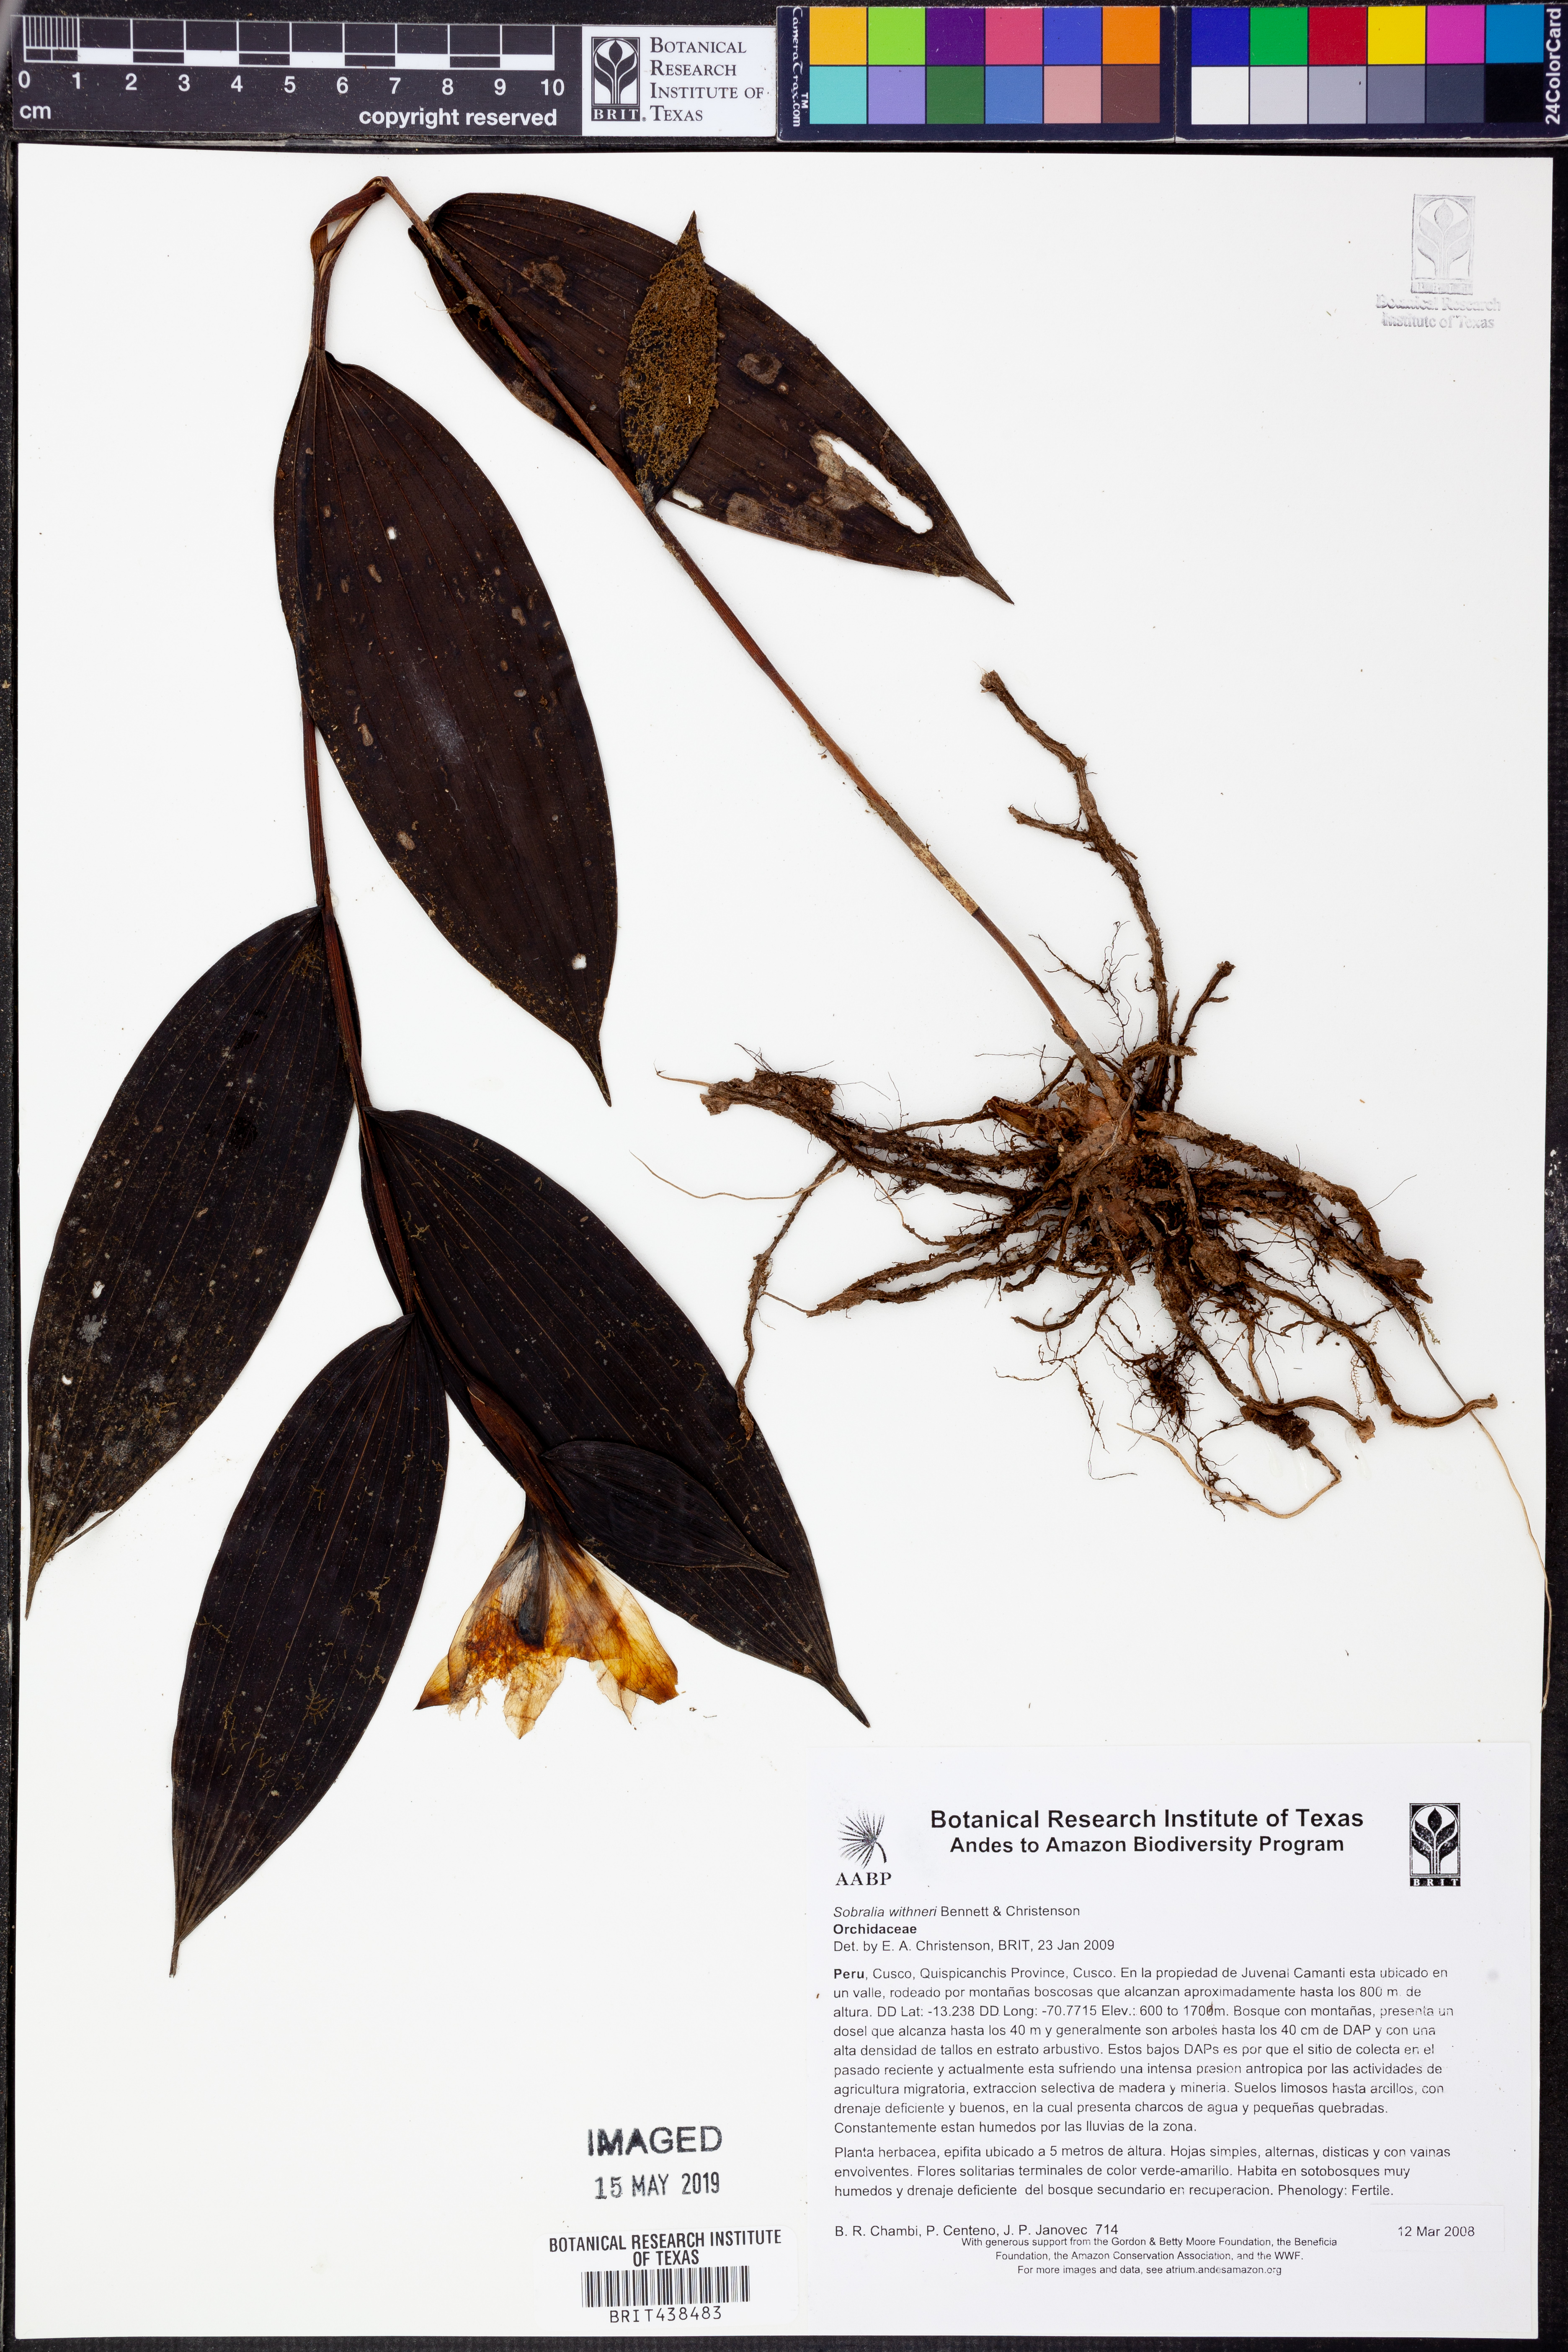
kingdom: Plantae
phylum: Tracheophyta
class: Liliopsida
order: Asparagales
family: Orchidaceae
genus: Sobralia
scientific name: Sobralia withneri
